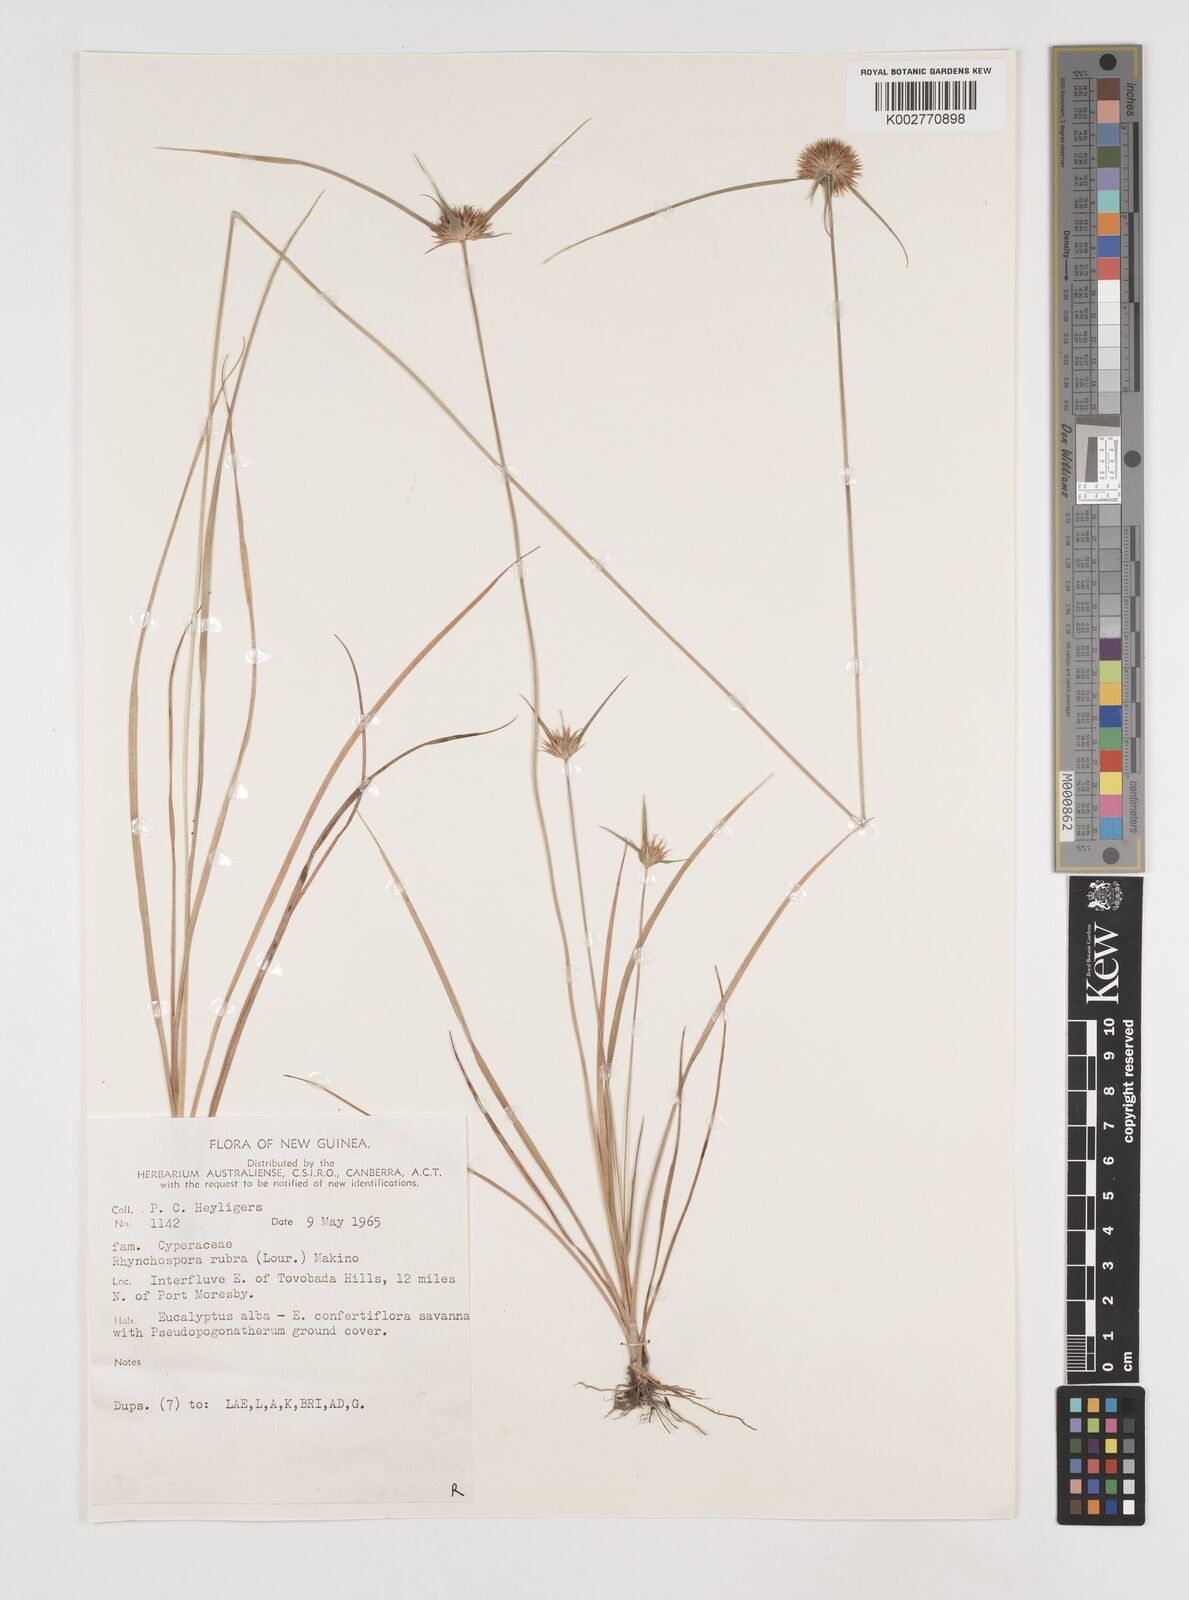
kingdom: Plantae
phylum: Tracheophyta
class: Liliopsida
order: Poales
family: Cyperaceae
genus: Rhynchospora
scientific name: Rhynchospora rubra
